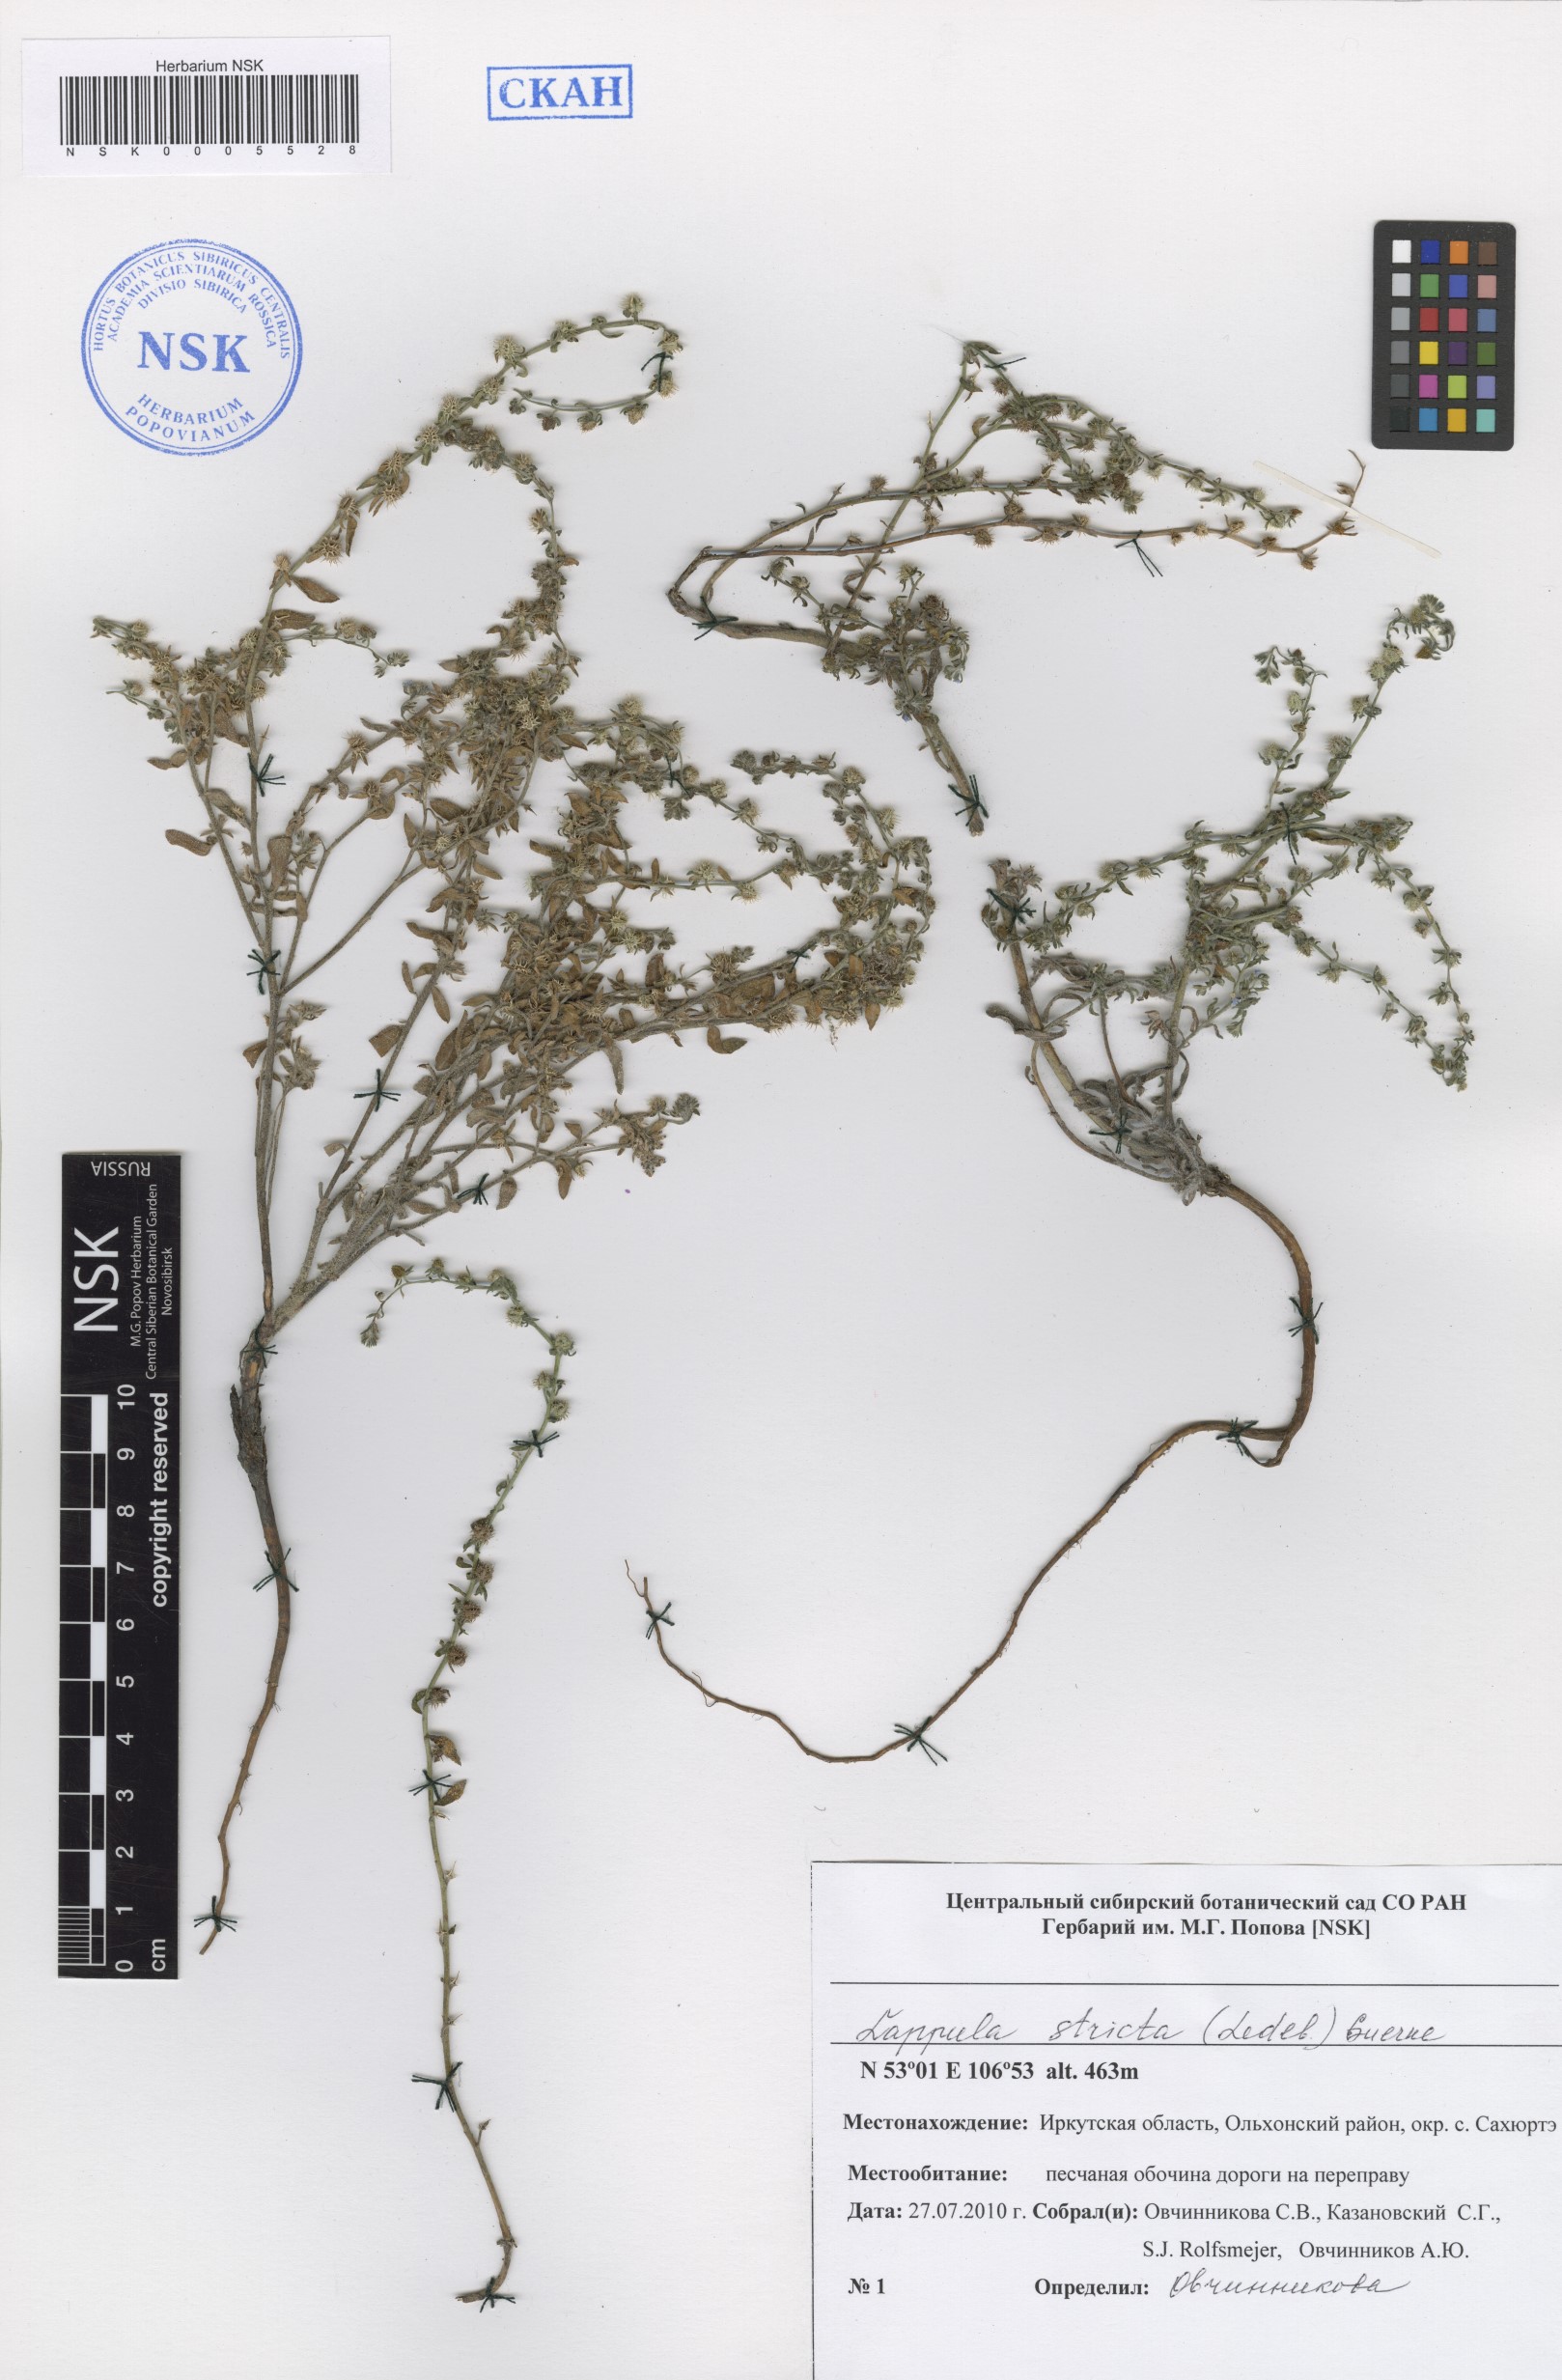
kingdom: Plantae
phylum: Tracheophyta
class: Magnoliopsida
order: Boraginales
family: Boraginaceae
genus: Lappula
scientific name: Lappula stricta
